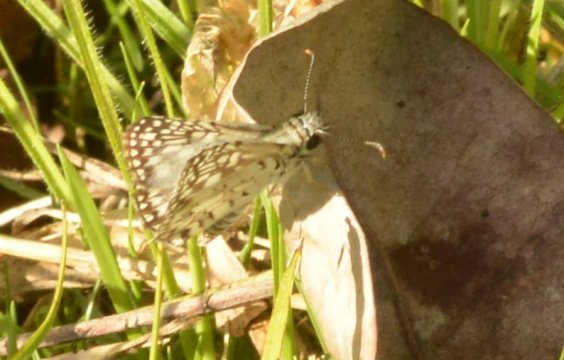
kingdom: Animalia
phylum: Arthropoda
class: Insecta
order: Lepidoptera
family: Hesperiidae
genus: Pyrgus
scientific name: Pyrgus oileus
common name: Tropical Checkered-Skipper
